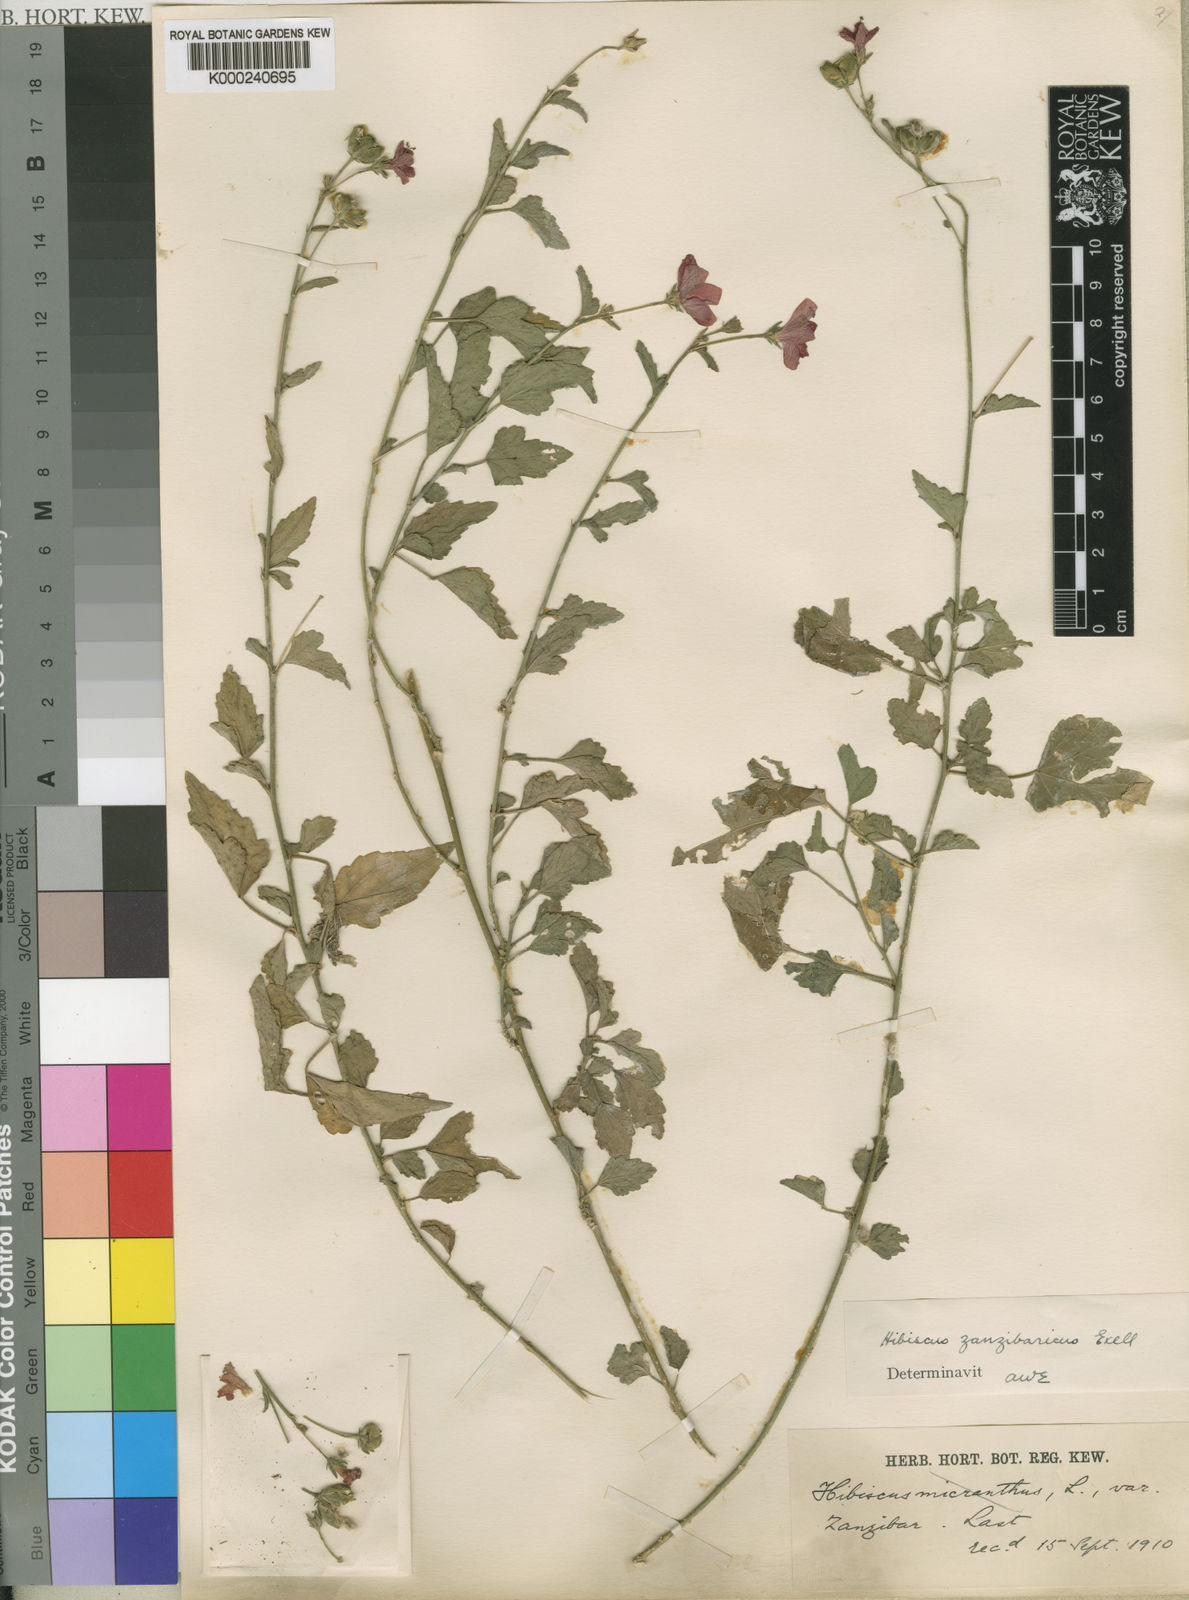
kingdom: Plantae
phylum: Tracheophyta
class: Magnoliopsida
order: Malvales
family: Malvaceae
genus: Hibiscus
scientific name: Hibiscus zanzibaricus
